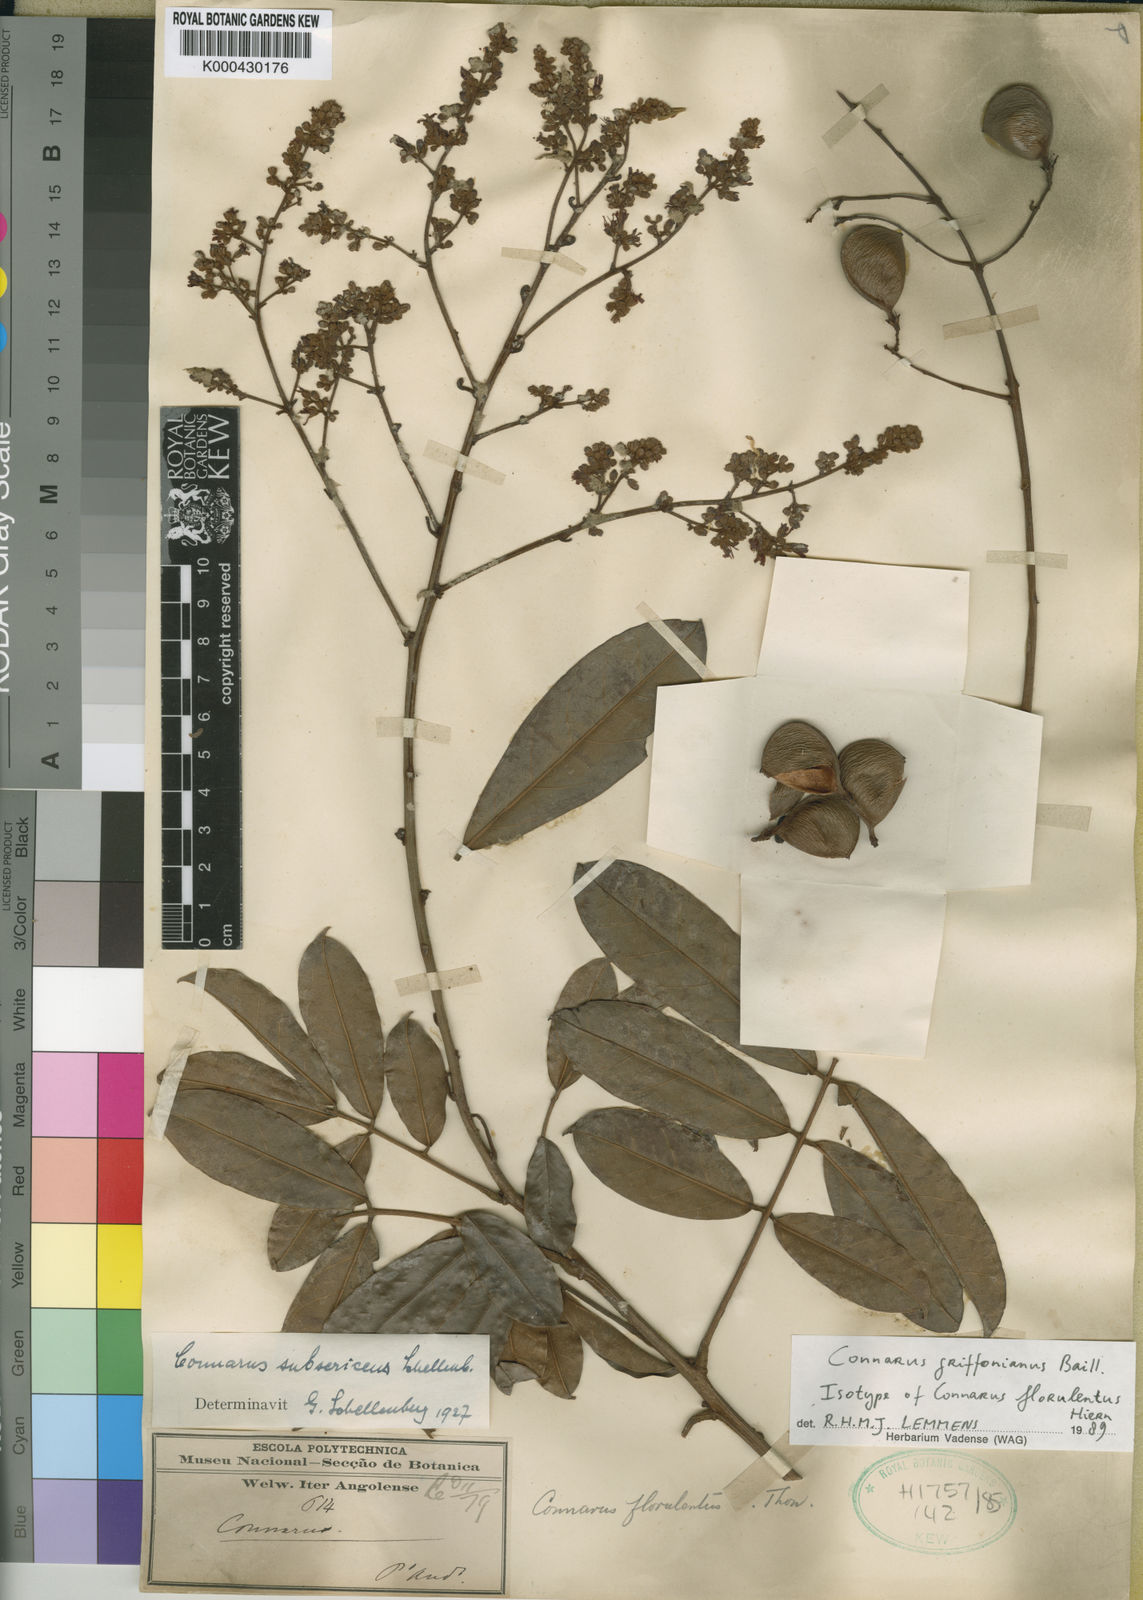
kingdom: Plantae
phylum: Tracheophyta
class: Magnoliopsida
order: Oxalidales
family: Connaraceae
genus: Connarus
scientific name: Connarus griffonianus
